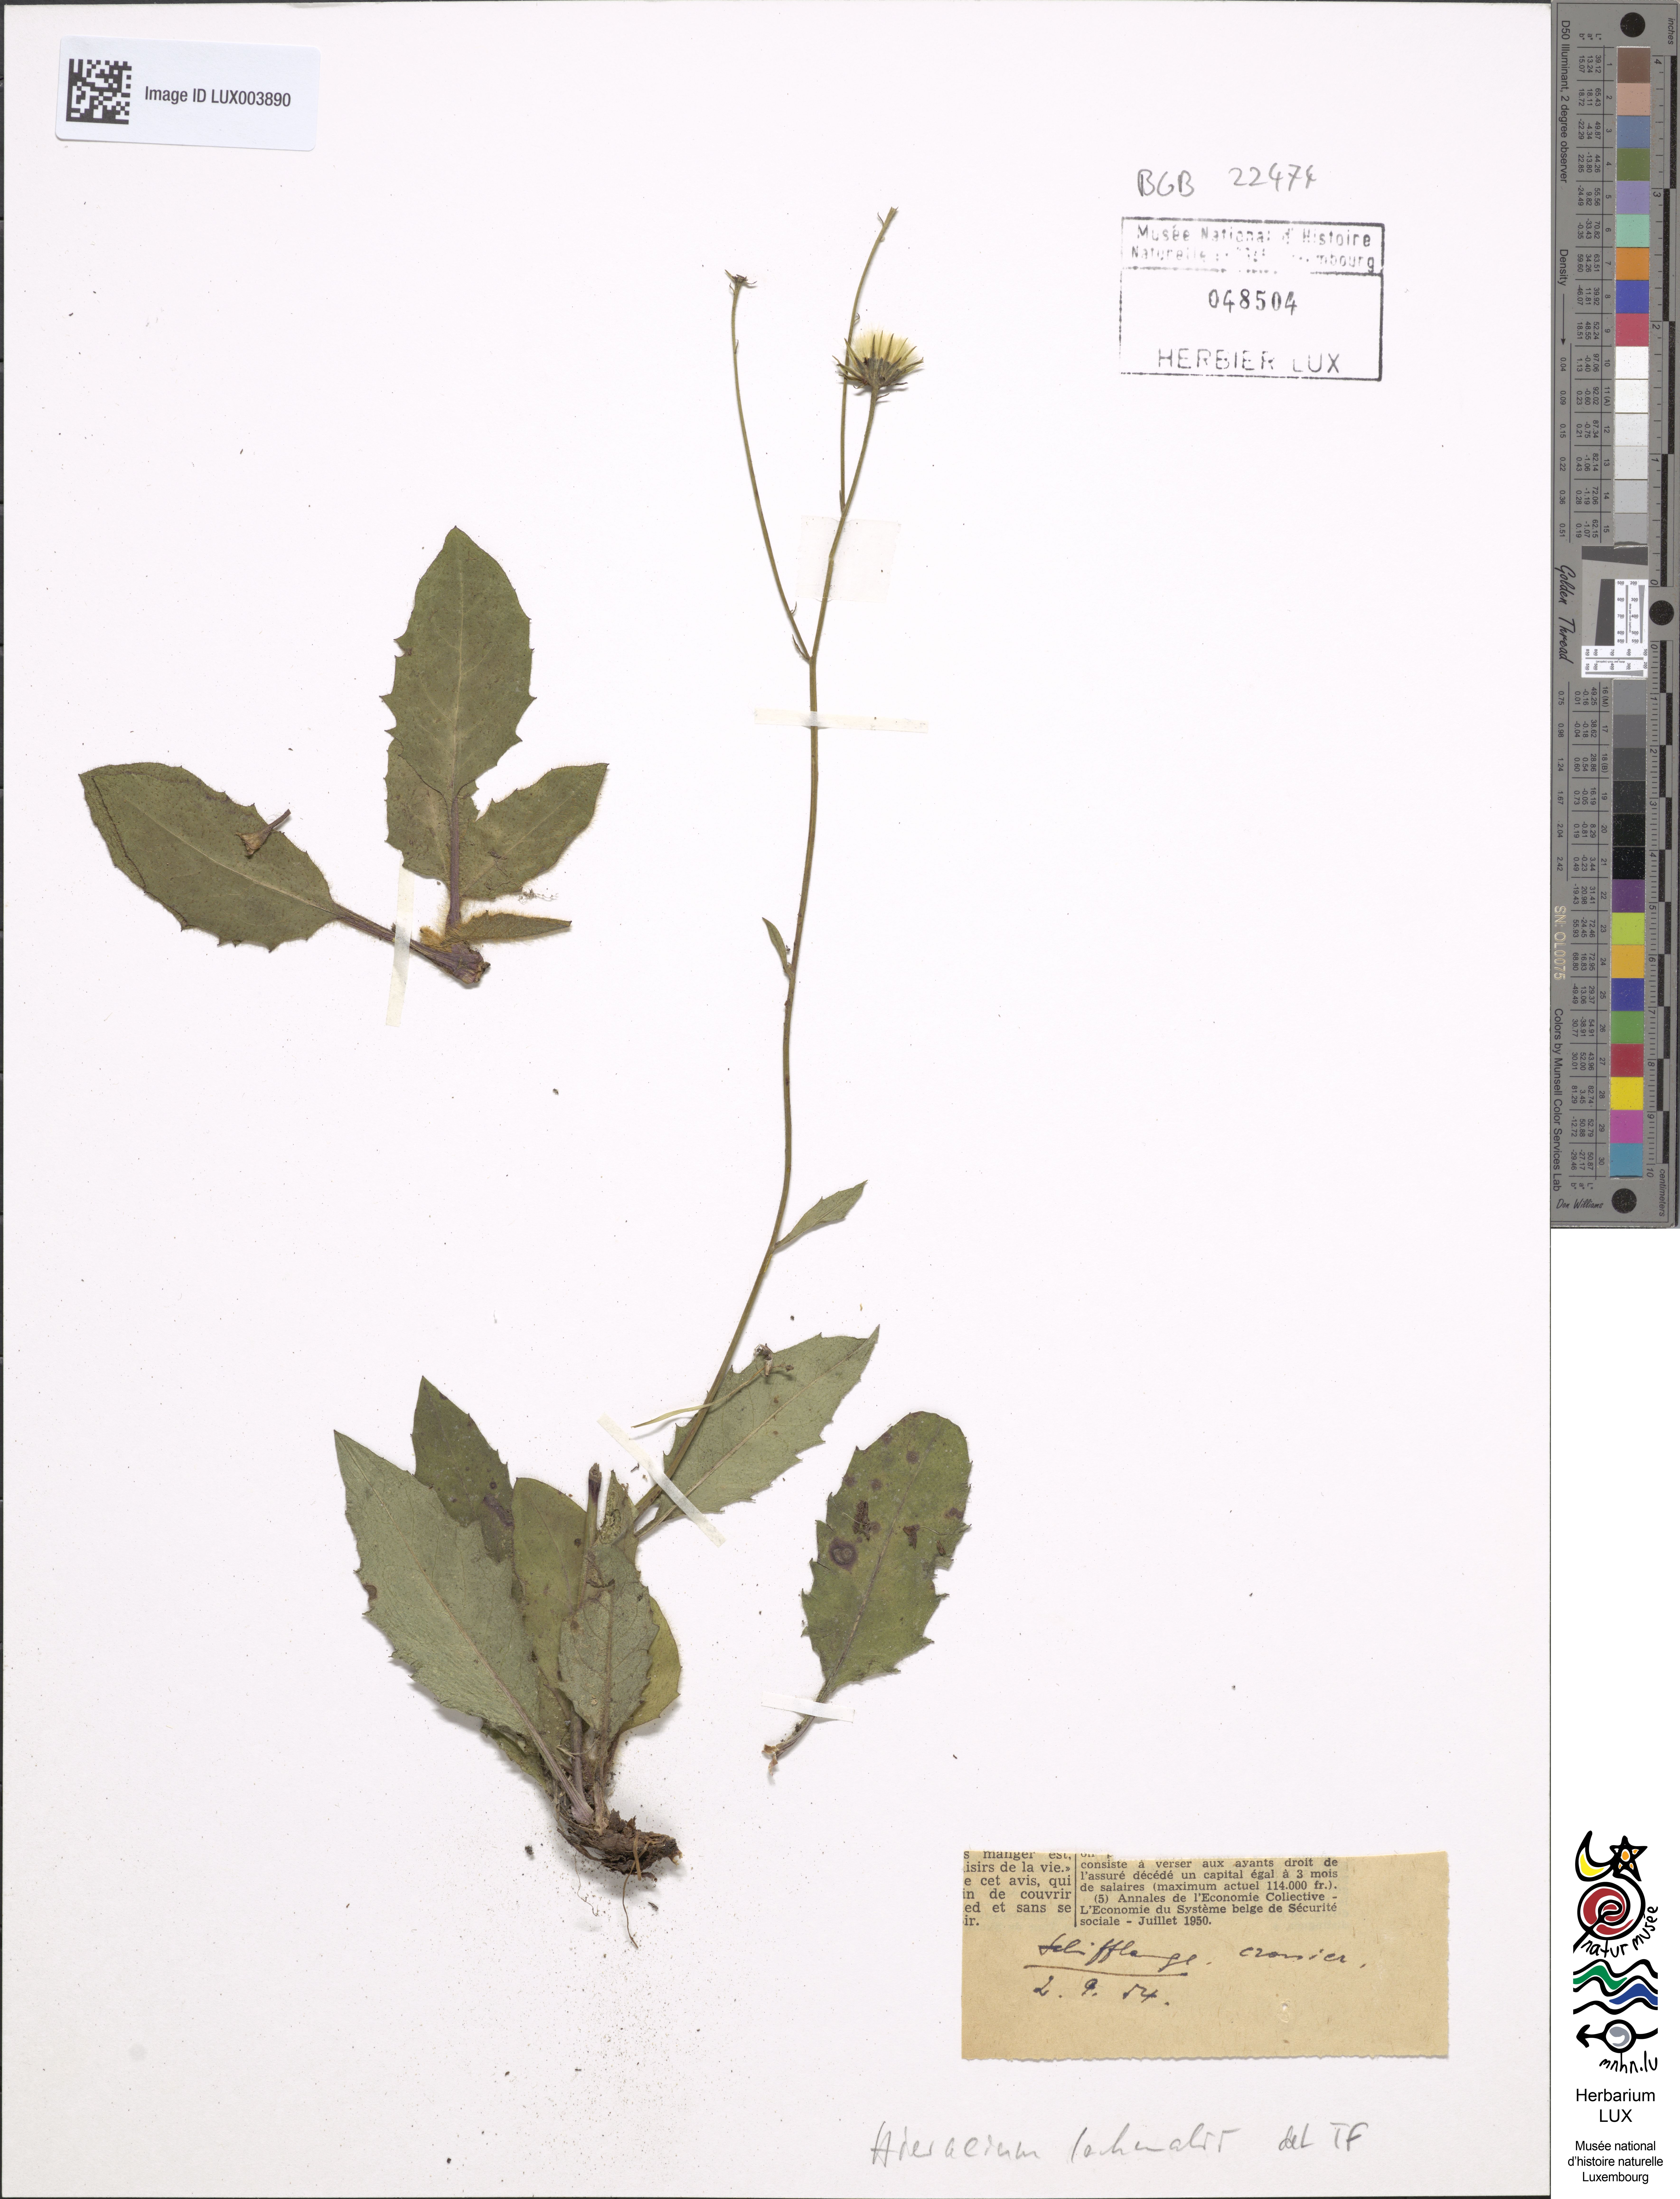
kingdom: Plantae
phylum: Tracheophyta
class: Magnoliopsida
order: Asterales
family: Asteraceae
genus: Hieracium
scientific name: Hieracium lachenalii
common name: Common hawkweed
